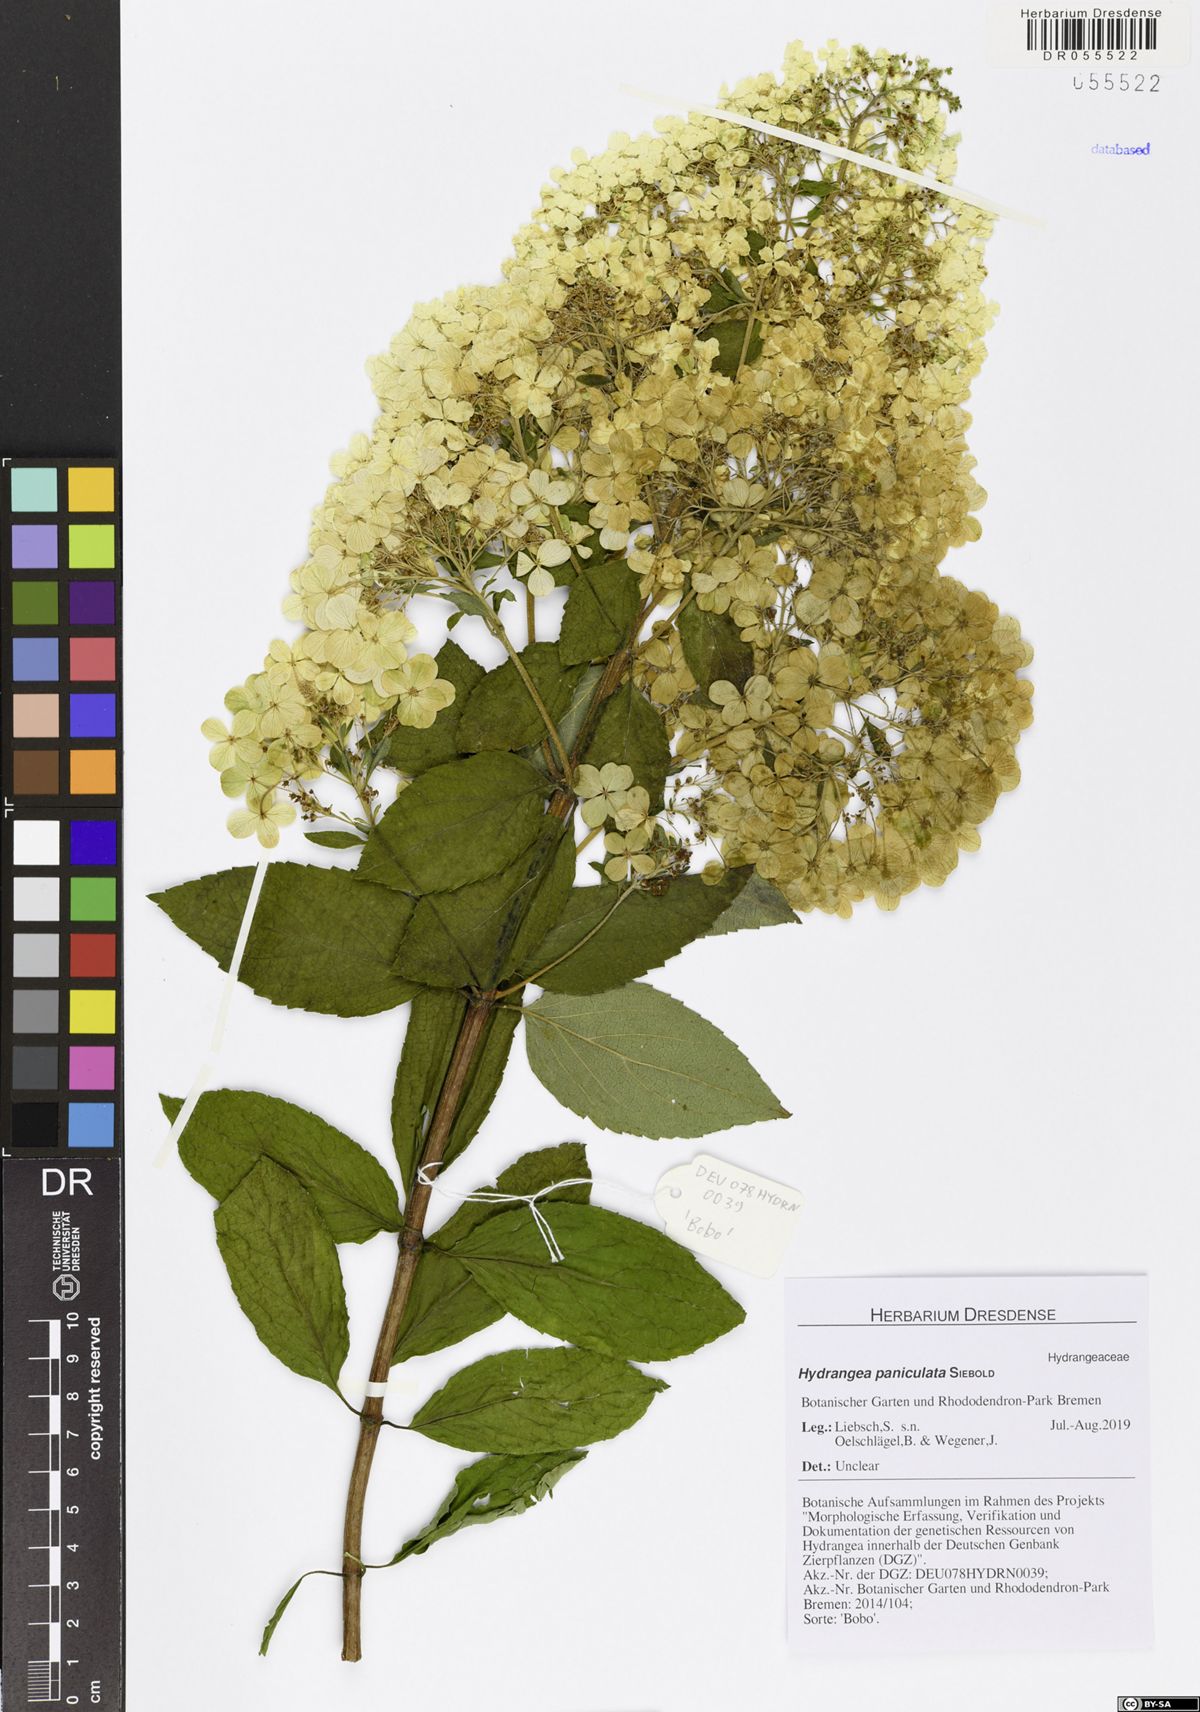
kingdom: Plantae
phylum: Tracheophyta
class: Magnoliopsida
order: Cornales
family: Hydrangeaceae
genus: Hydrangea
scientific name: Hydrangea paniculata
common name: Panicled hydrangea
